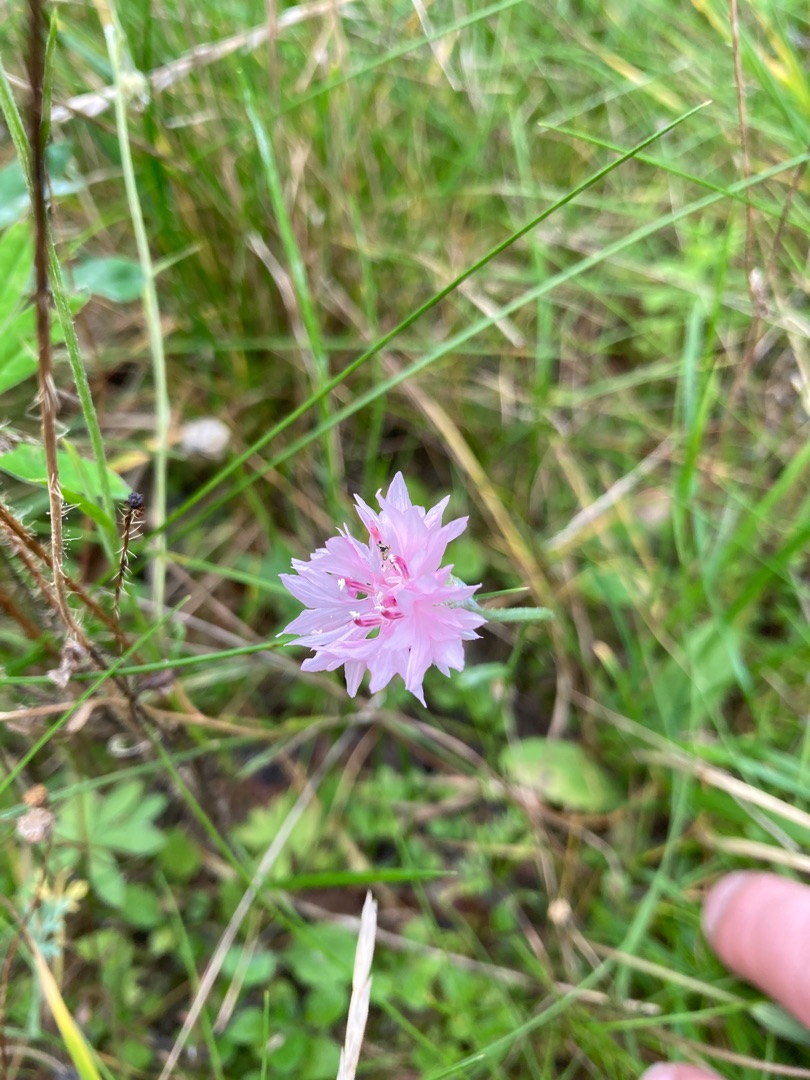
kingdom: Plantae
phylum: Tracheophyta
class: Magnoliopsida
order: Asterales
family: Asteraceae
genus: Centaurea
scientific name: Centaurea cyanus
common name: Kornblomst
